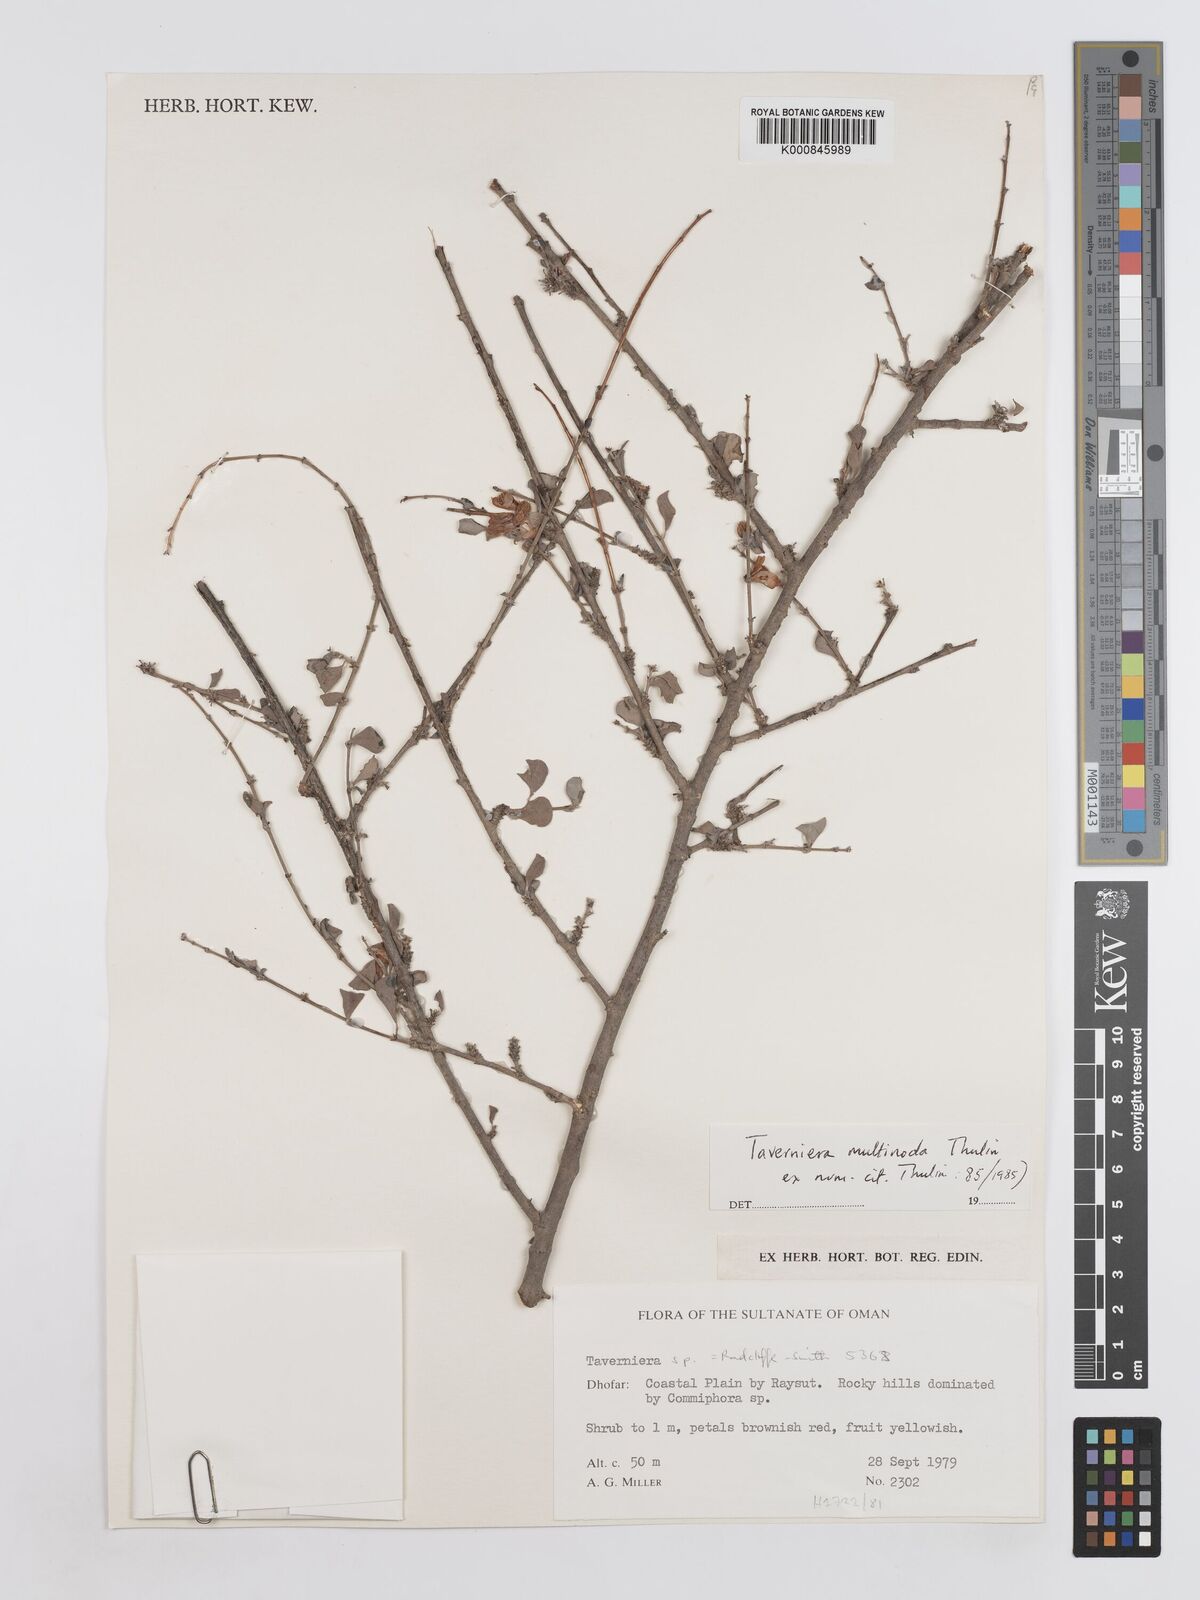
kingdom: Plantae
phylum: Tracheophyta
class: Magnoliopsida
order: Fabales
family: Fabaceae
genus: Taverniera
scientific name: Taverniera multinoda
